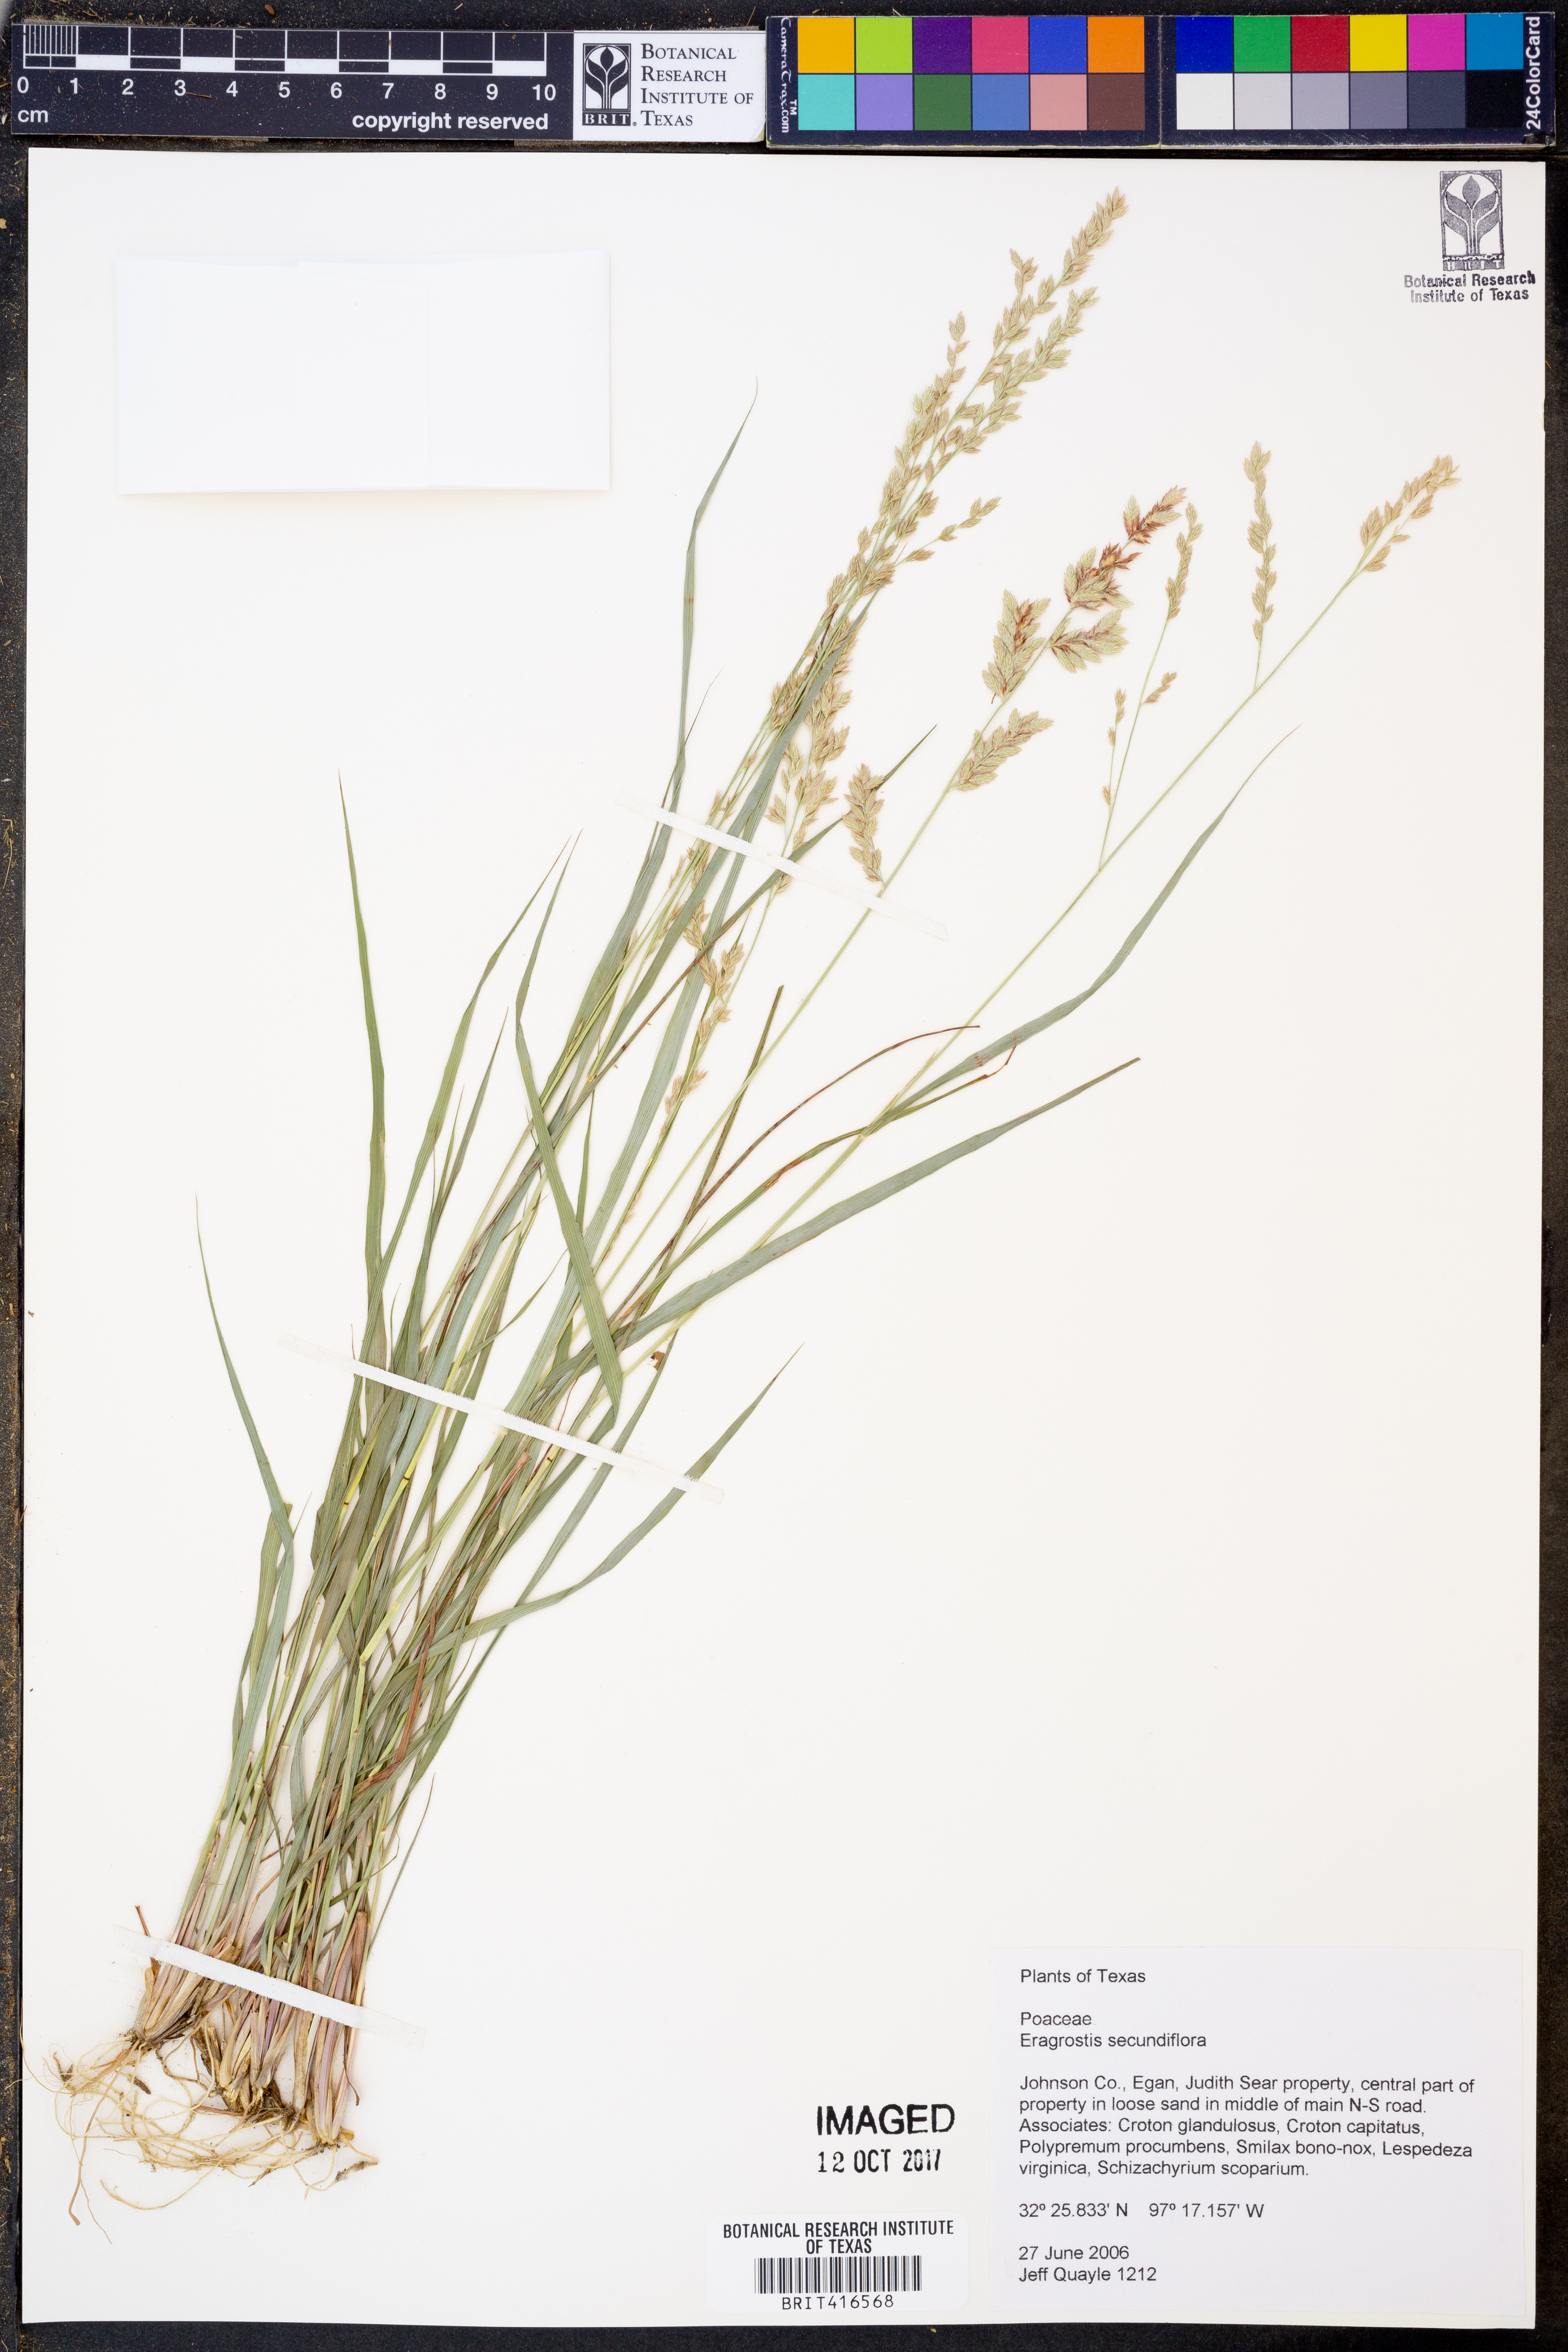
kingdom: Plantae
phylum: Tracheophyta
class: Liliopsida
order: Poales
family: Poaceae
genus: Eragrostis
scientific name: Eragrostis secundiflora
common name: Red love grass
